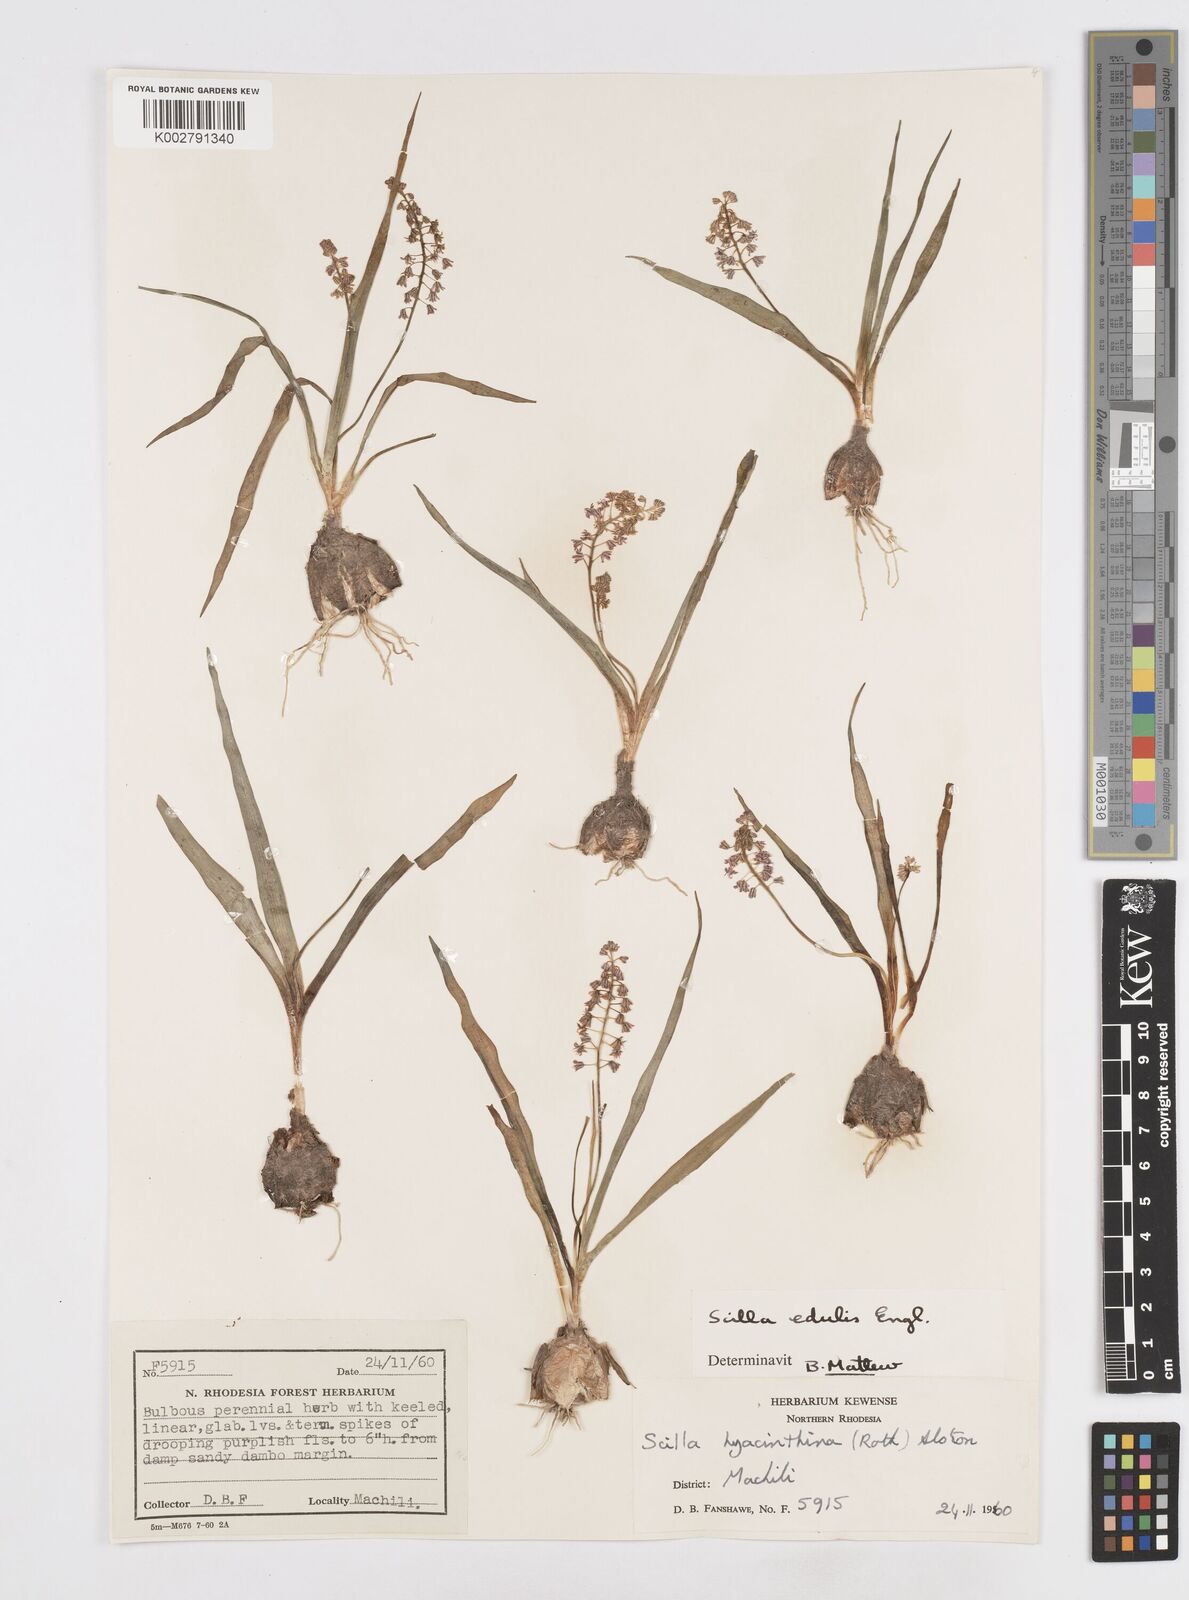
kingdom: Plantae
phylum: Tracheophyta
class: Liliopsida
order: Asparagales
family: Asparagaceae
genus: Ledebouria
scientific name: Ledebouria edulis
